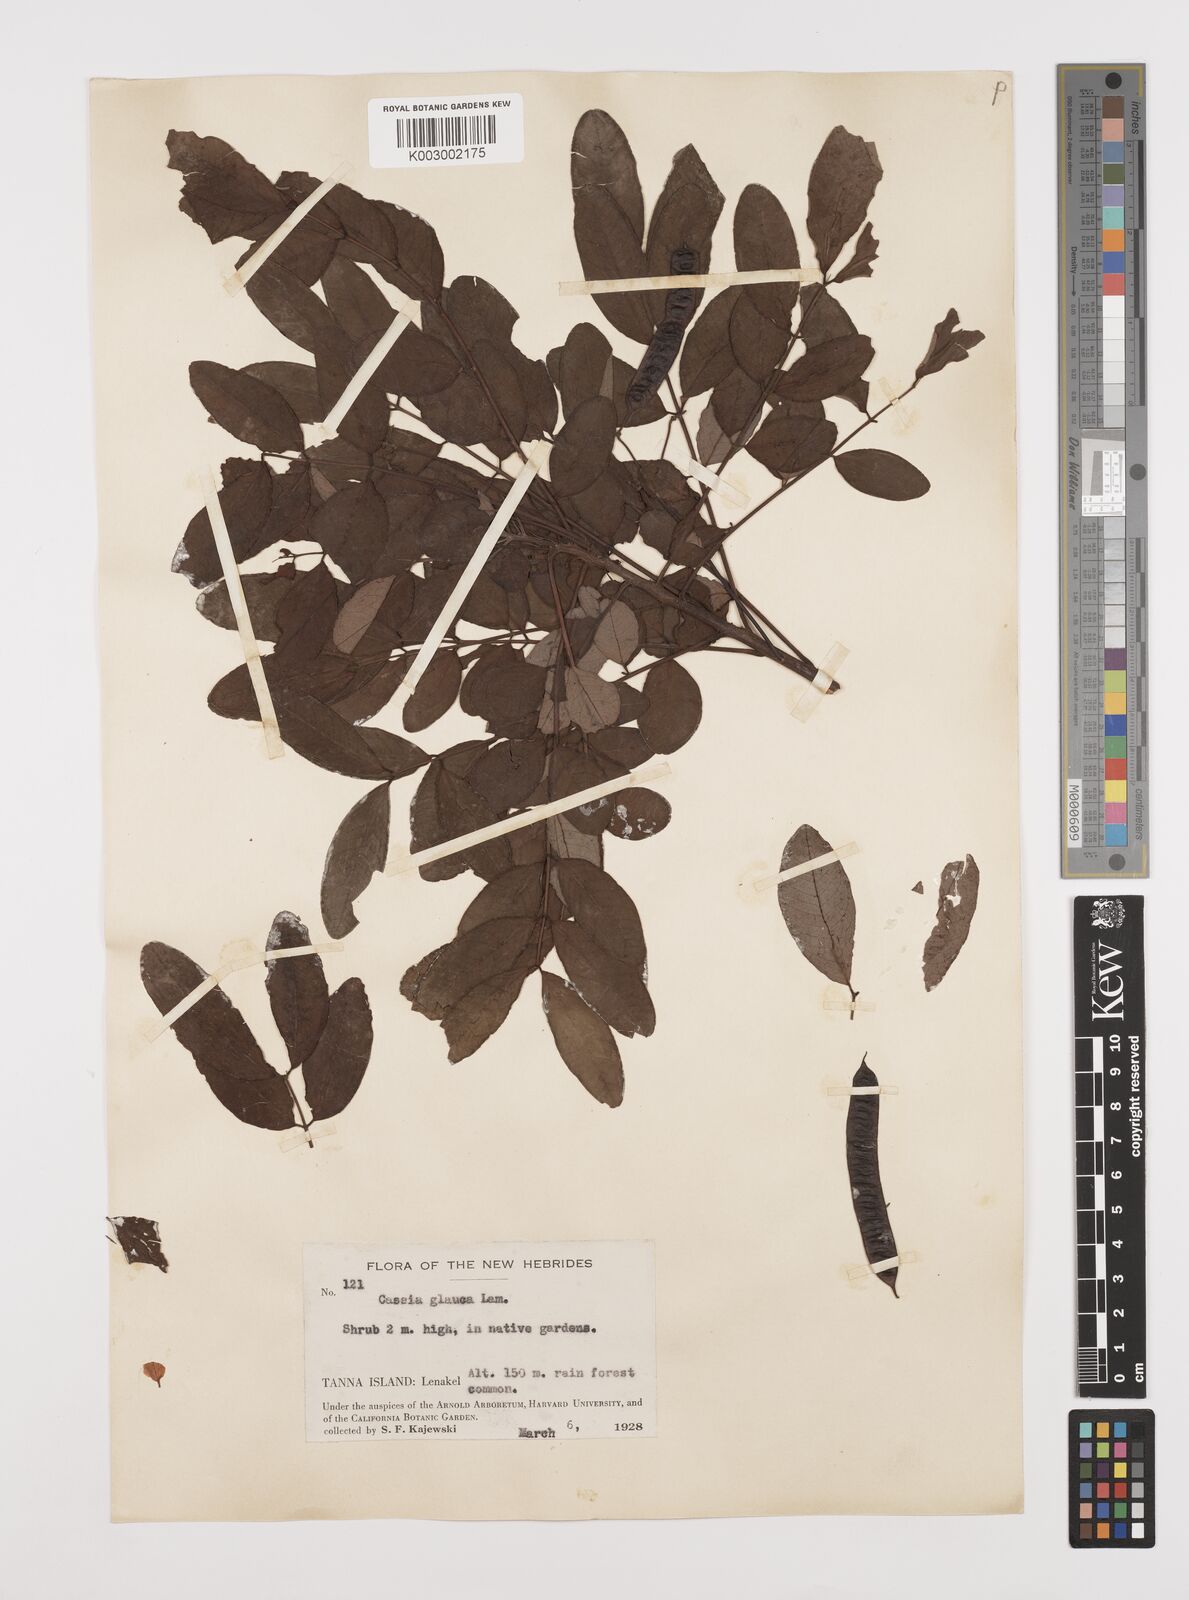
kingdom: Plantae
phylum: Tracheophyta
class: Magnoliopsida
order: Fabales
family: Fabaceae
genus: Senna
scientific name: Senna surattensis
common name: Glossy shower
